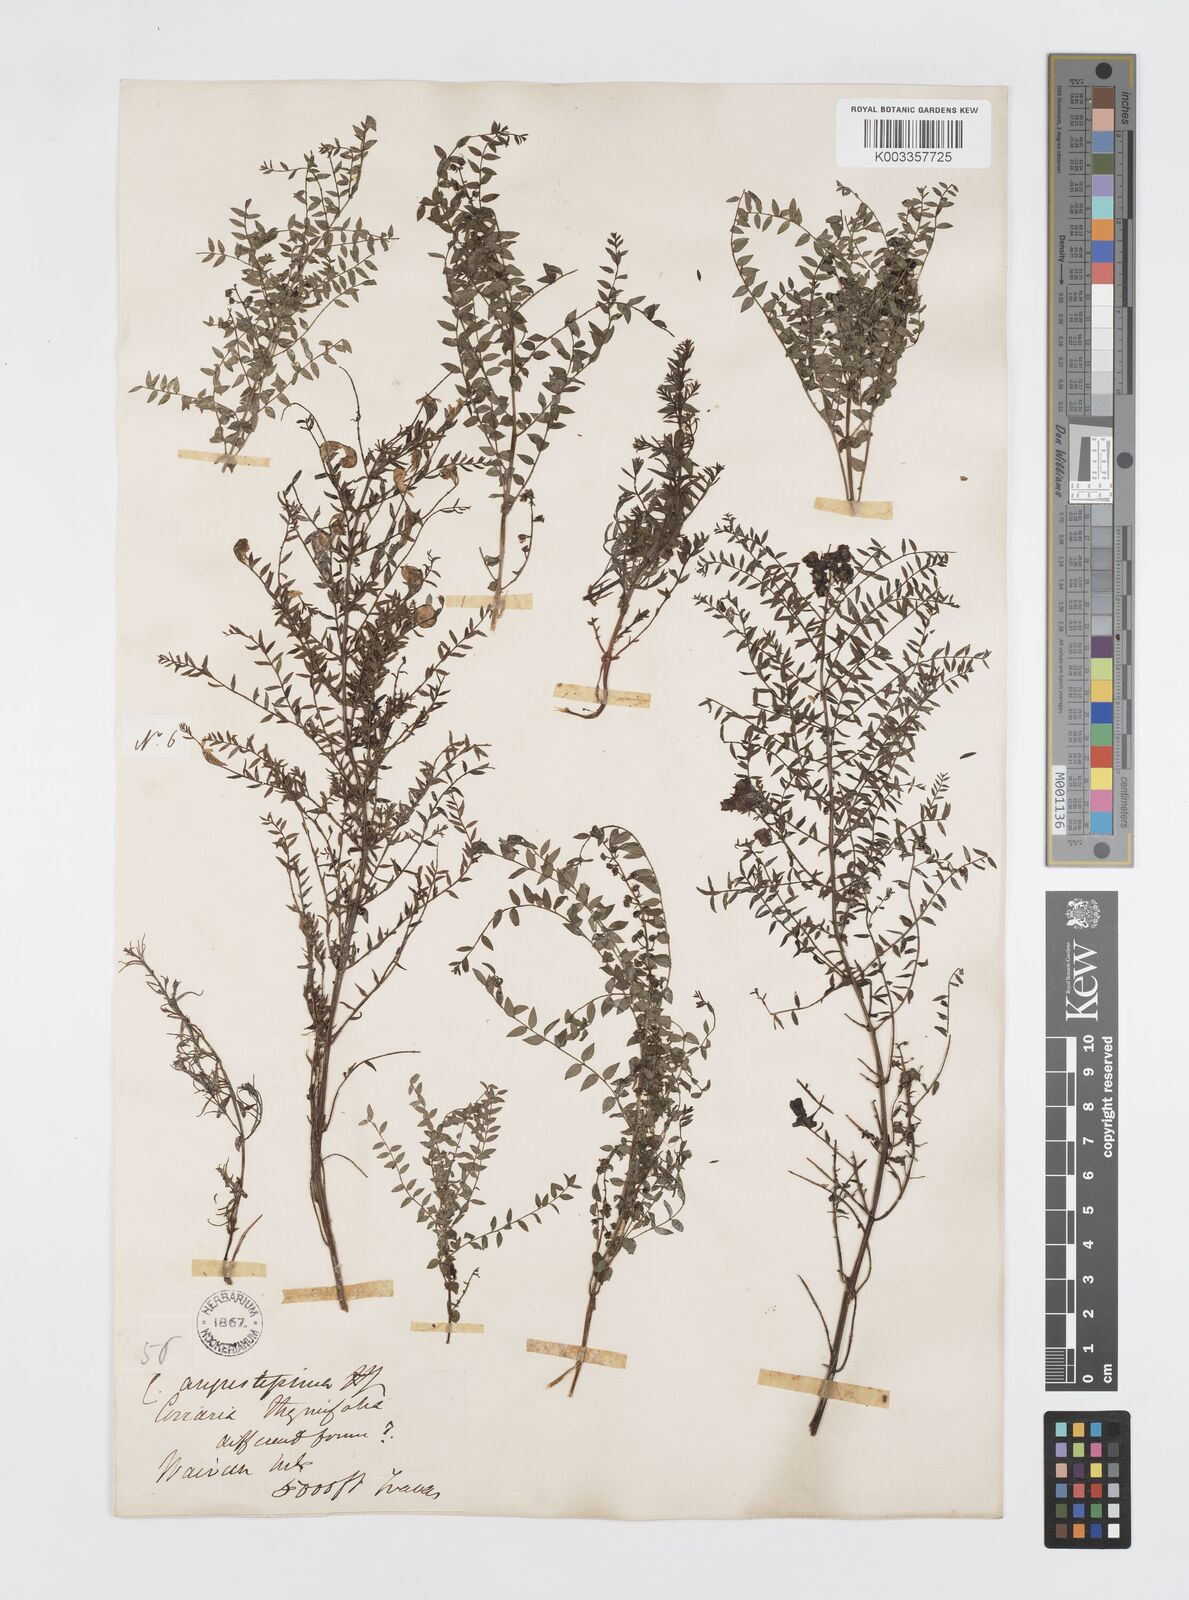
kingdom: Plantae
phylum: Tracheophyta
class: Magnoliopsida
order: Cucurbitales
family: Coriariaceae
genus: Coriaria
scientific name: Coriaria angustissima
